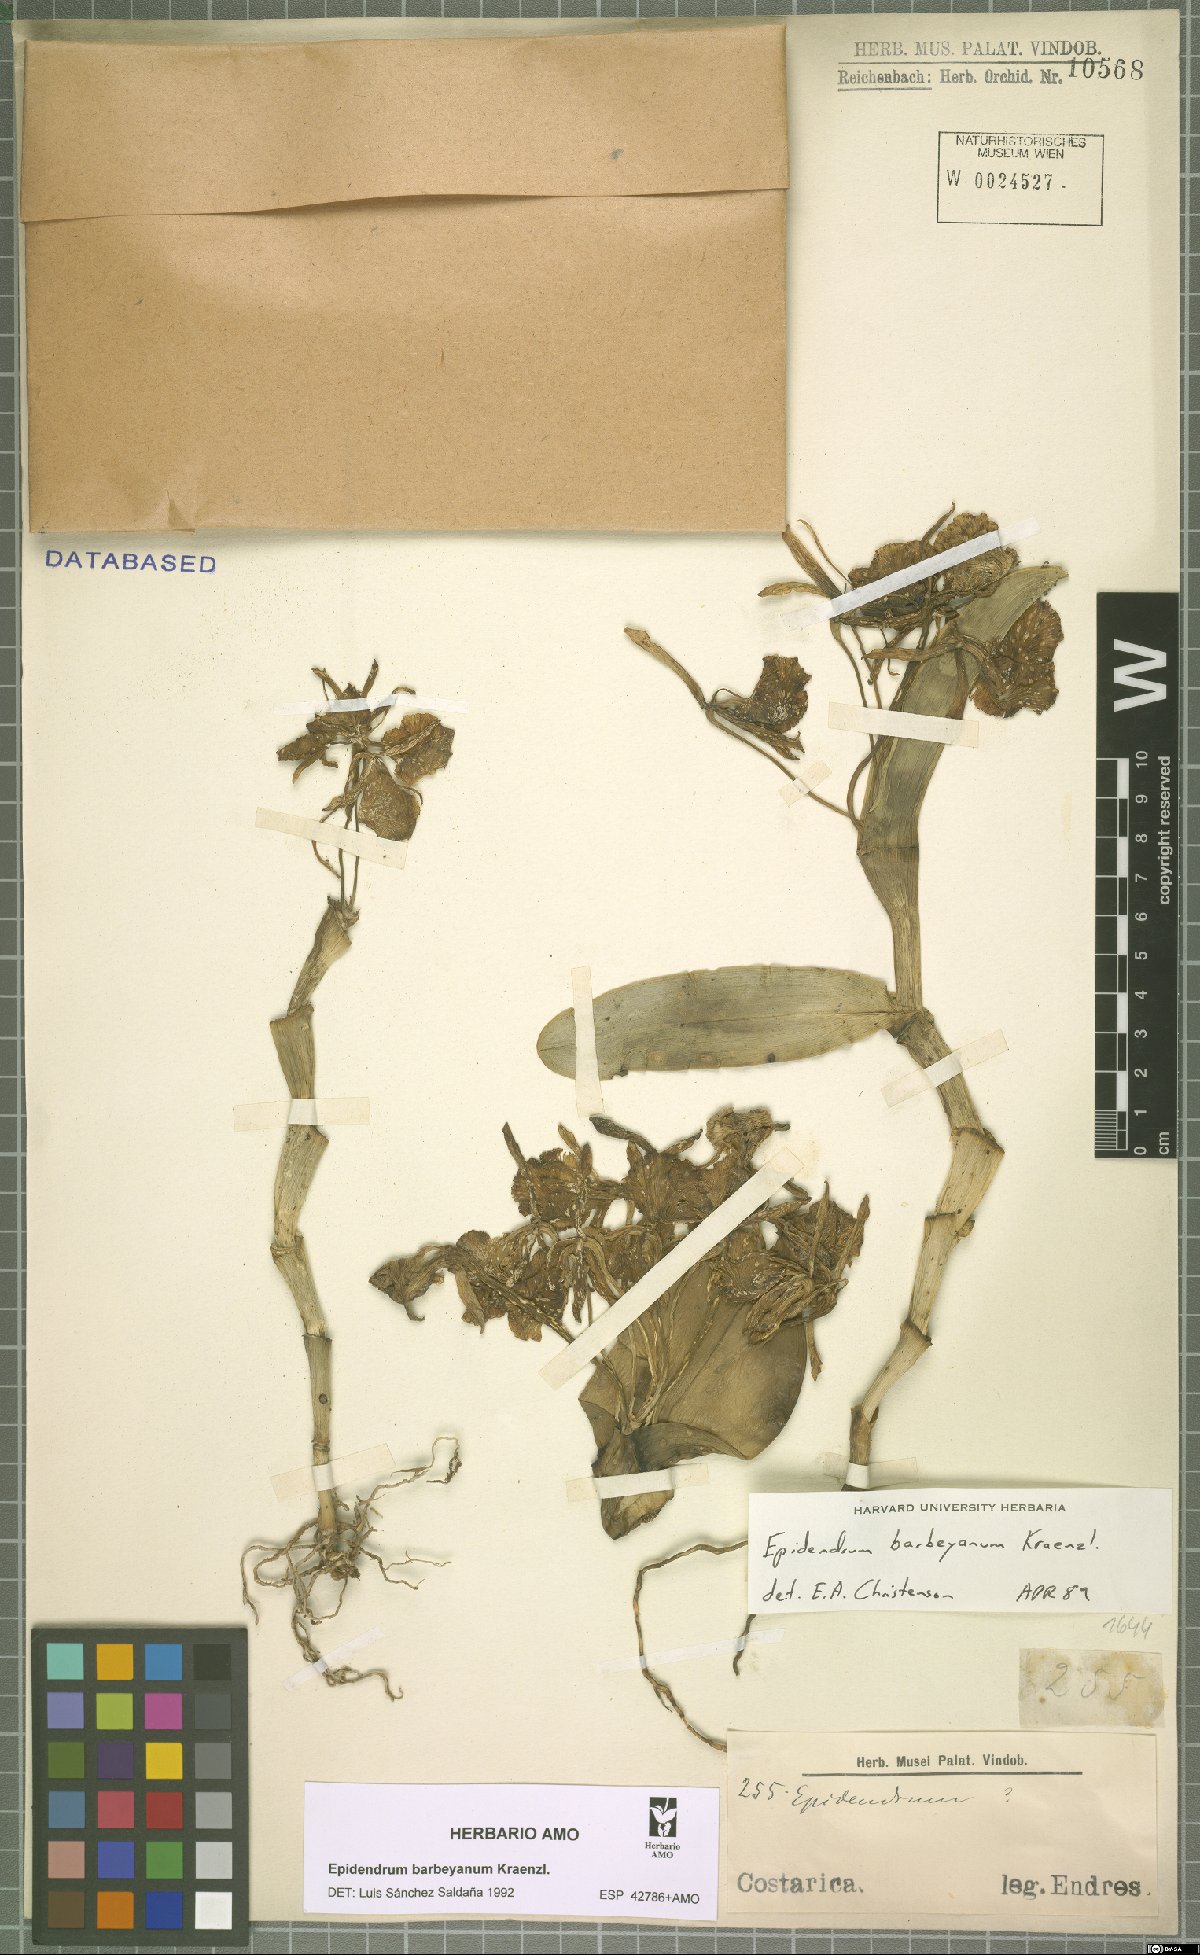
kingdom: Plantae
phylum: Tracheophyta
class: Liliopsida
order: Asparagales
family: Orchidaceae
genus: Epidendrum
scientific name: Epidendrum barbeyanum
